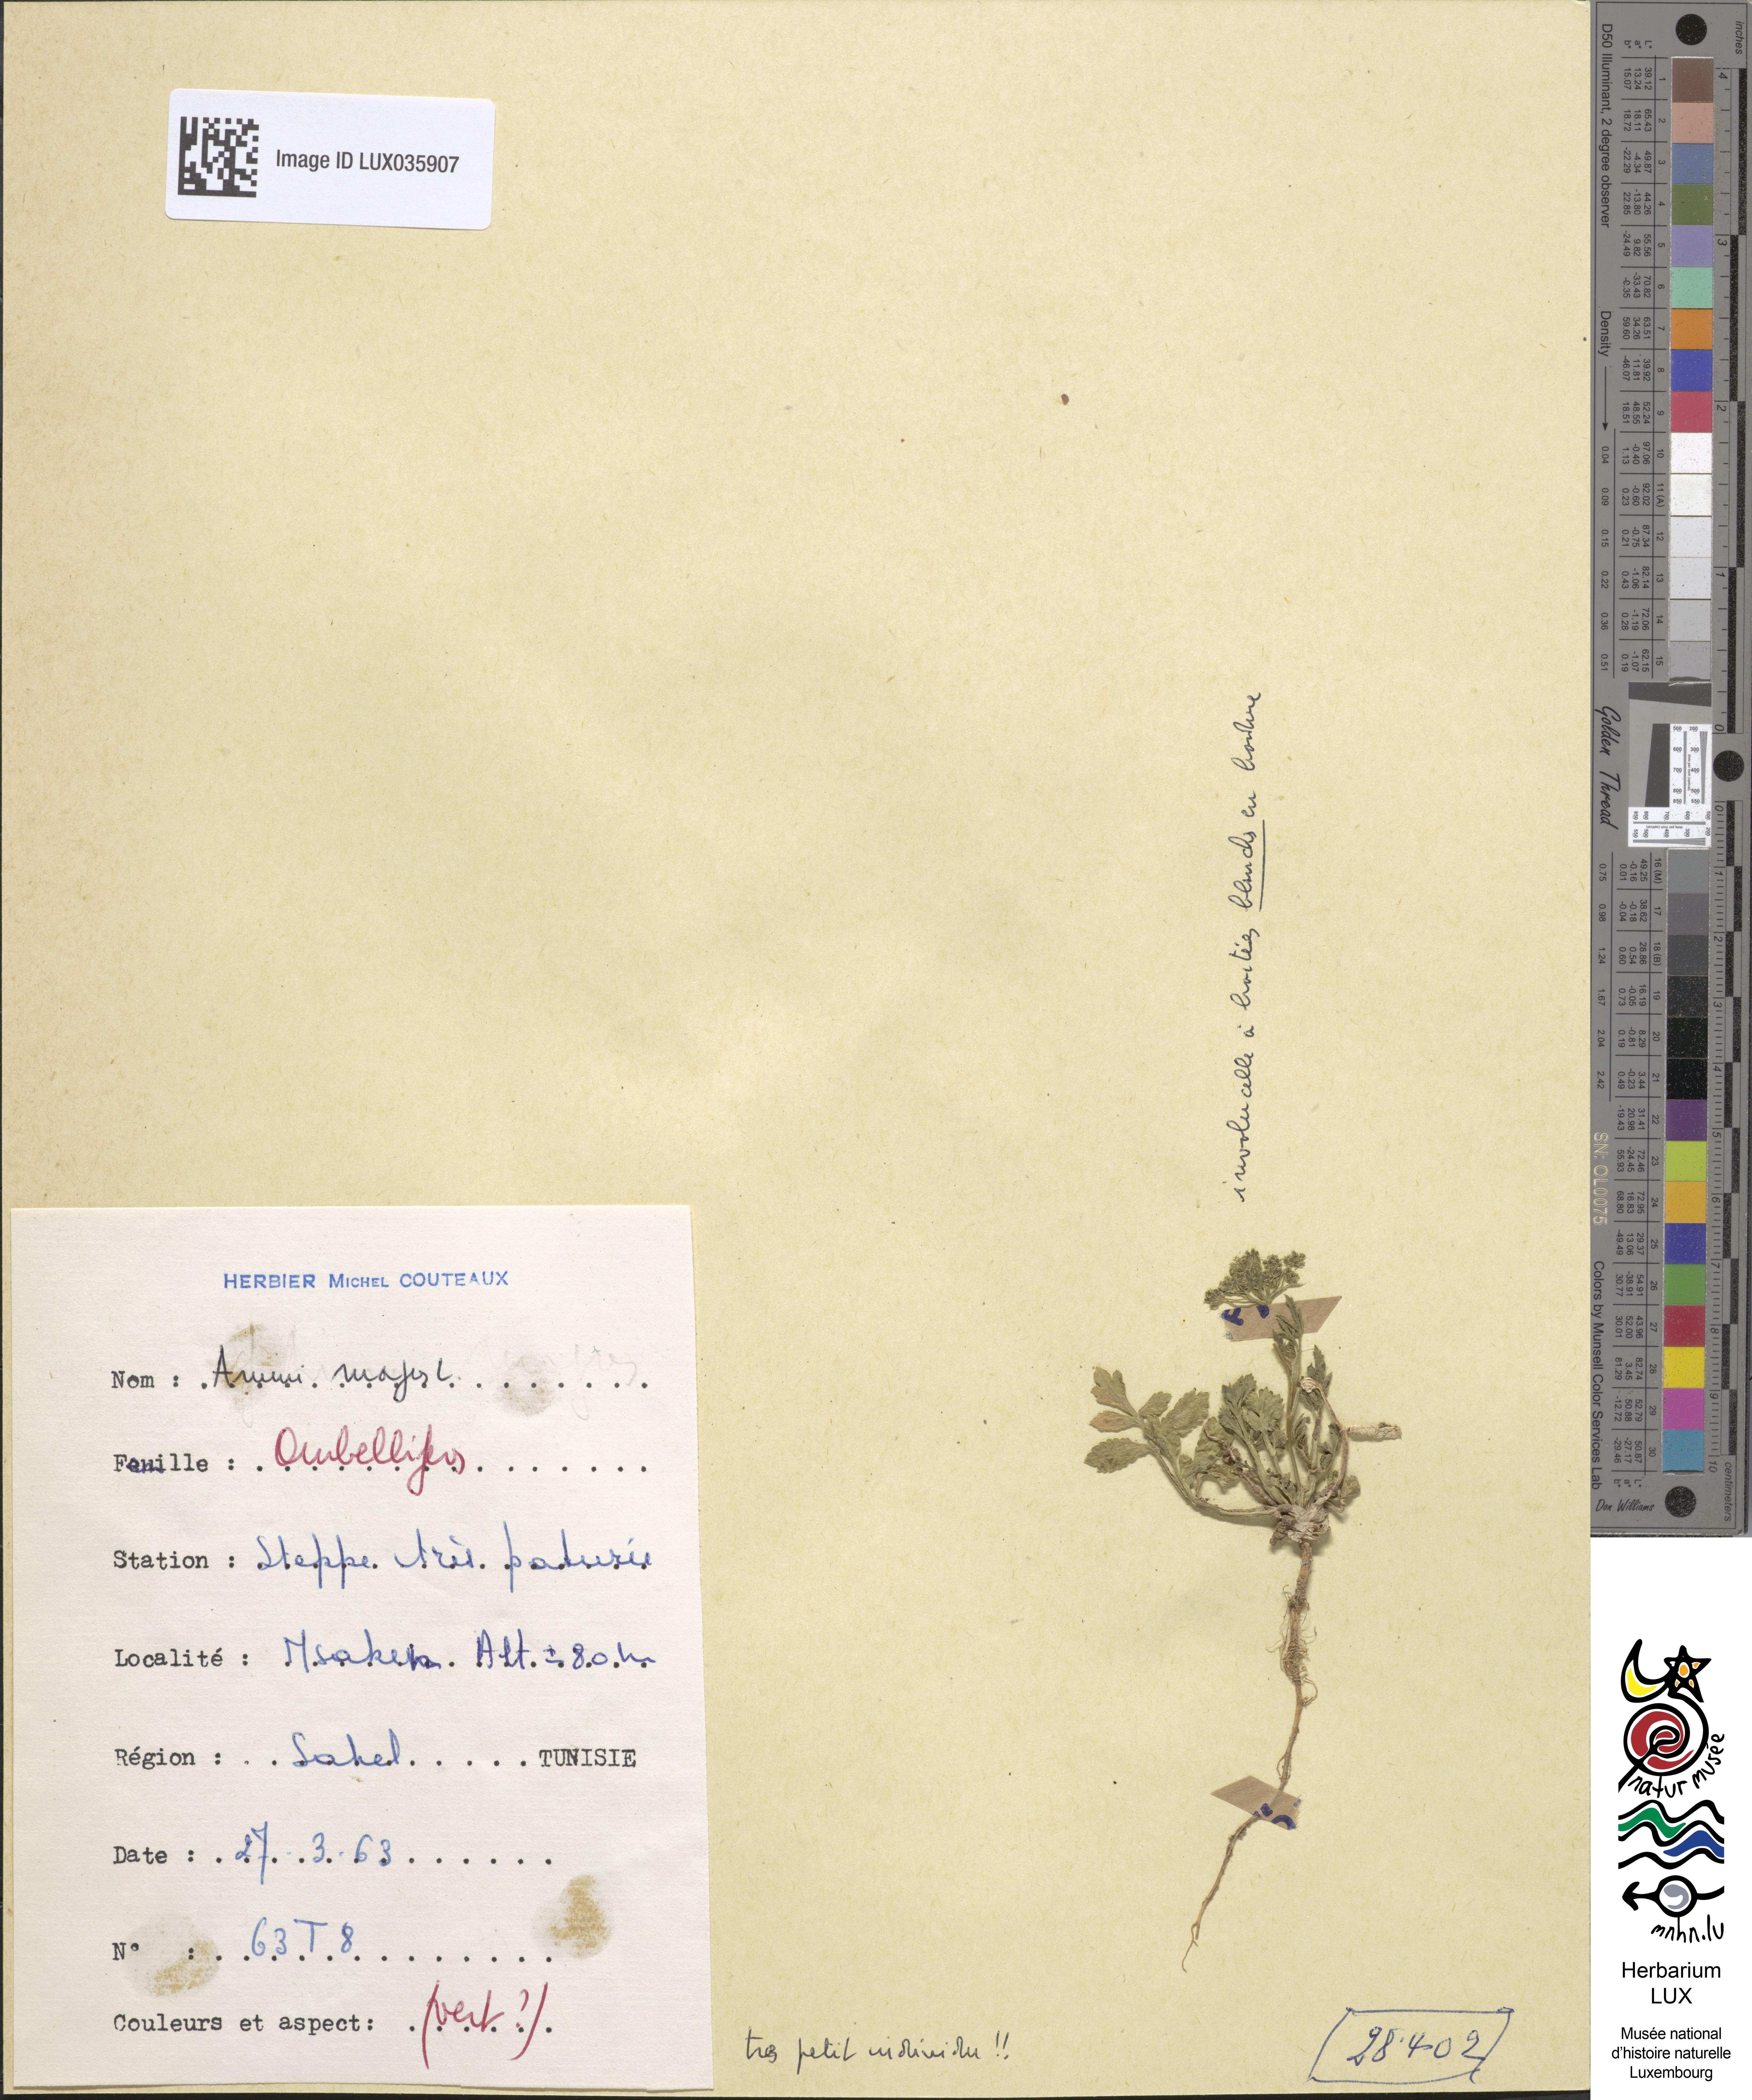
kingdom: Plantae
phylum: Tracheophyta
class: Magnoliopsida
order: Apiales
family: Apiaceae
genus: Ammi
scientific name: Ammi majus
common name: Bullwort
